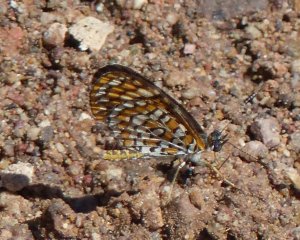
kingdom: Animalia
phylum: Arthropoda
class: Insecta
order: Lepidoptera
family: Nymphalidae
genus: Dymasia
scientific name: Dymasia dymas
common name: Tiny Checkerspot
